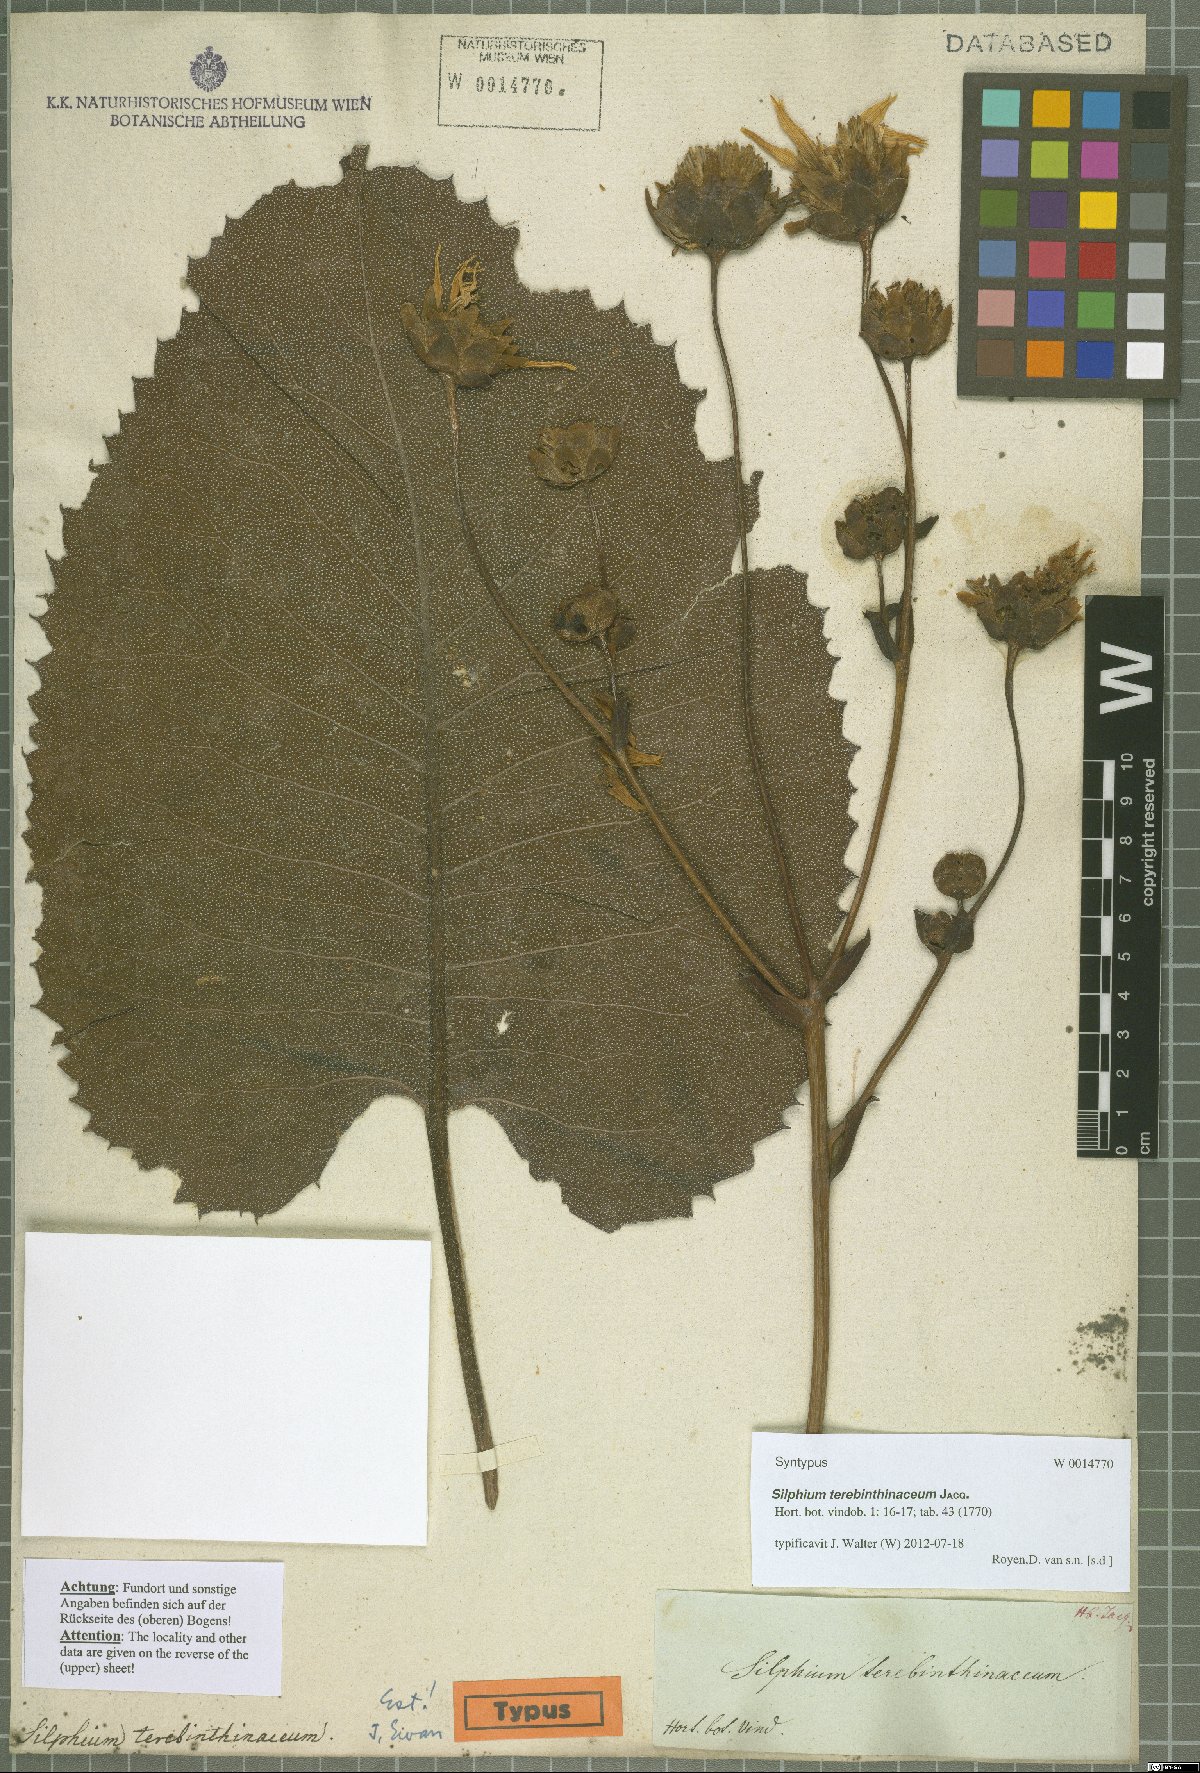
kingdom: Plantae
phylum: Tracheophyta
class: Magnoliopsida
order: Asterales
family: Asteraceae
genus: Silphium
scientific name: Silphium terebinthinaceum
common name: Basal-leaf rosinweed
